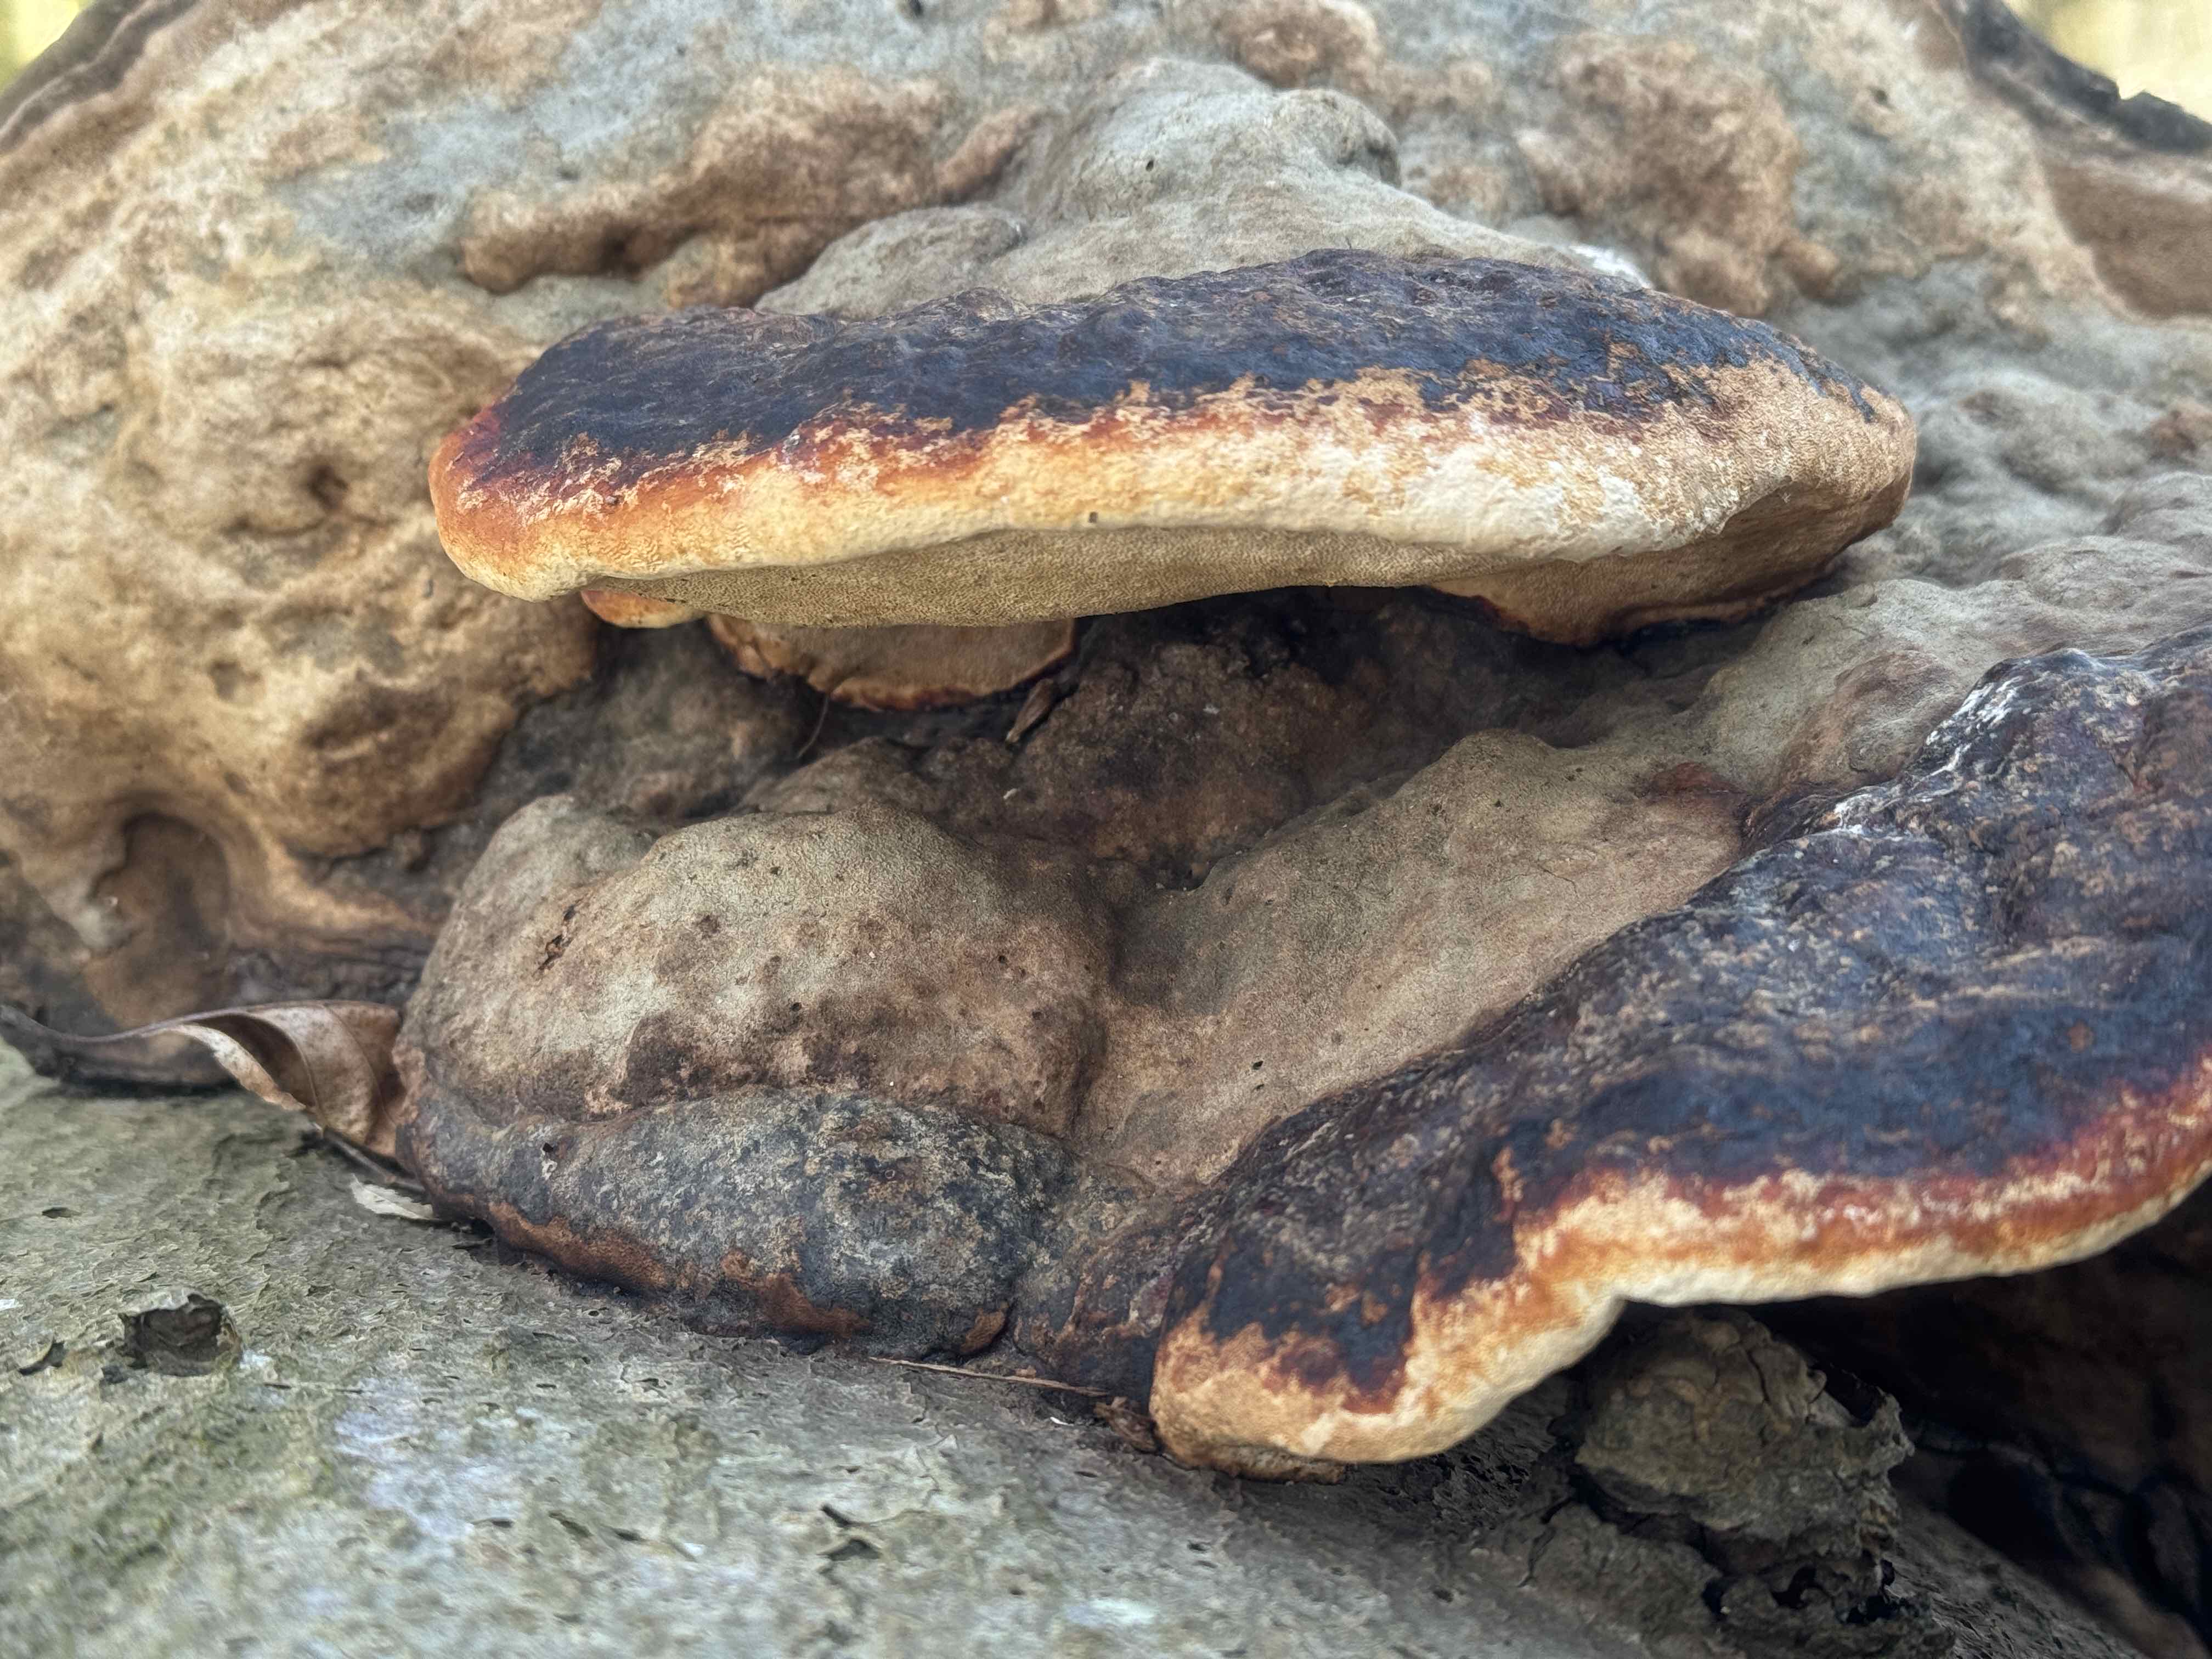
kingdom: Fungi
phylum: Basidiomycota
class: Agaricomycetes
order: Polyporales
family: Fomitopsidaceae
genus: Fomitopsis
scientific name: Fomitopsis pinicola
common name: randbæltet hovporesvamp
